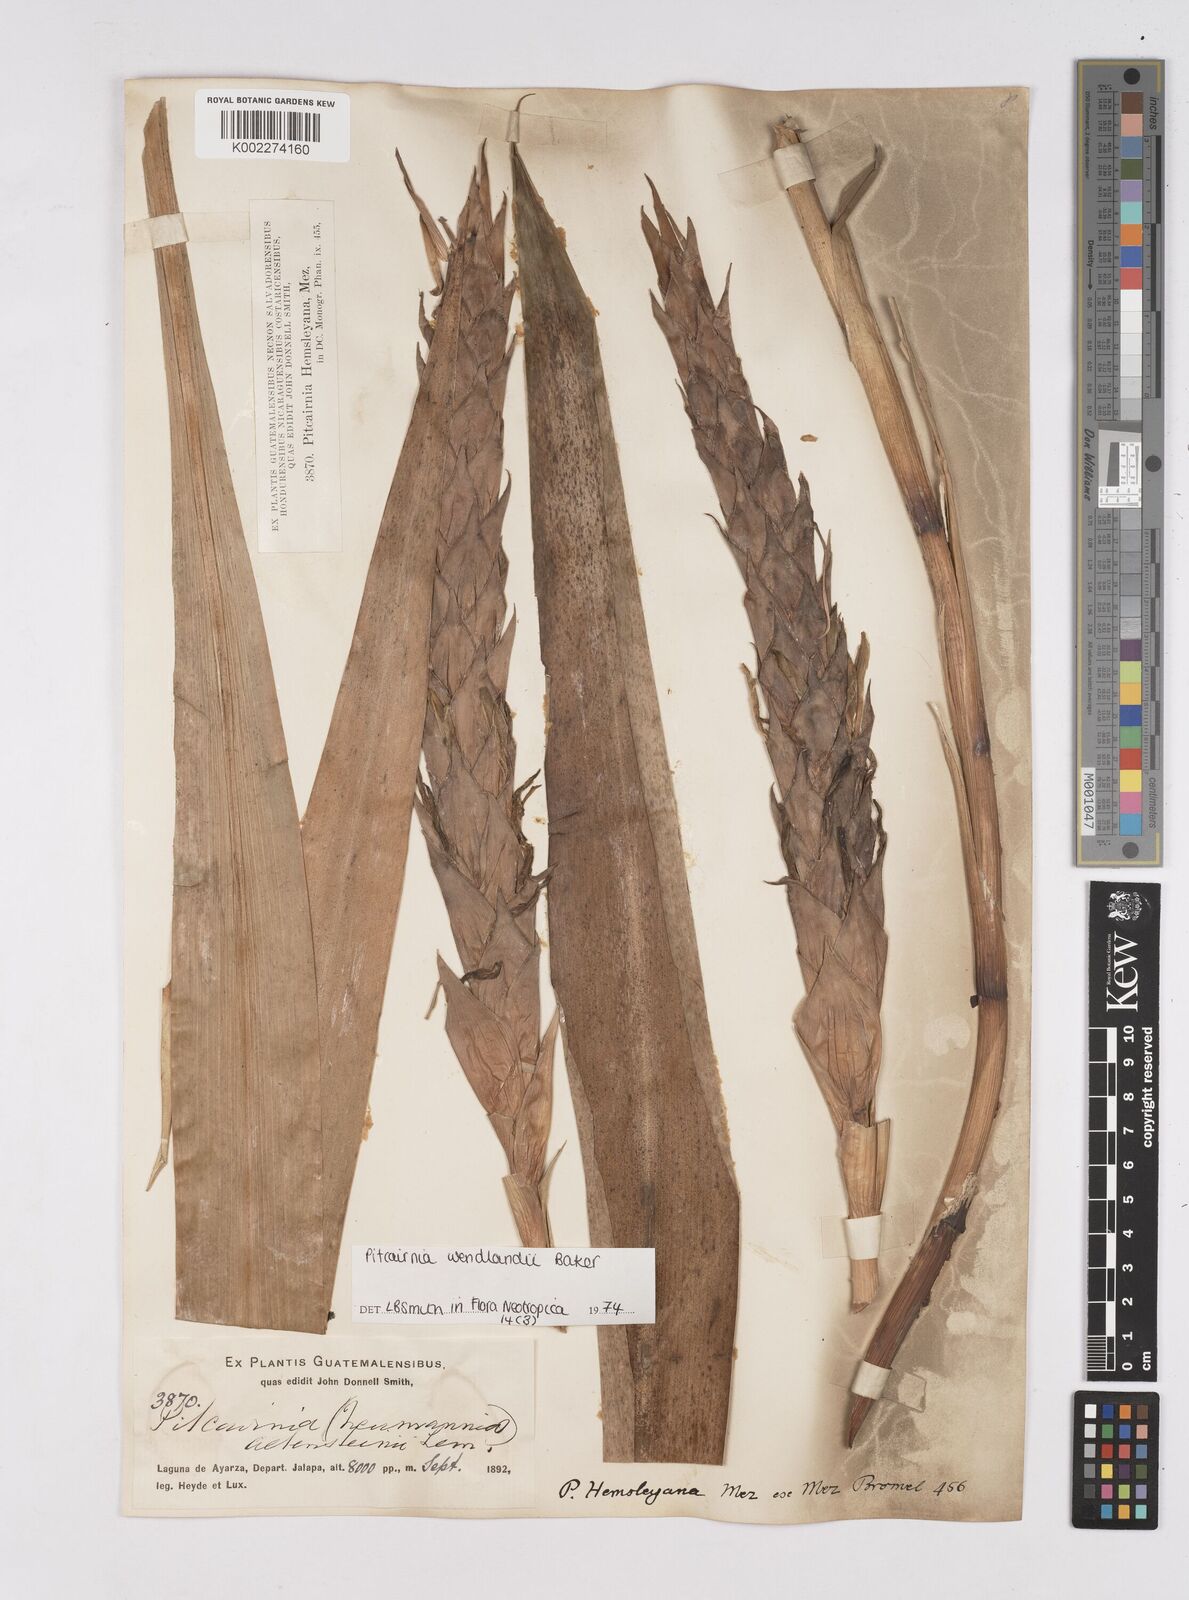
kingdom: Plantae
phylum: Tracheophyta
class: Liliopsida
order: Poales
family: Bromeliaceae
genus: Pitcairnia
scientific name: Pitcairnia wendlandii
